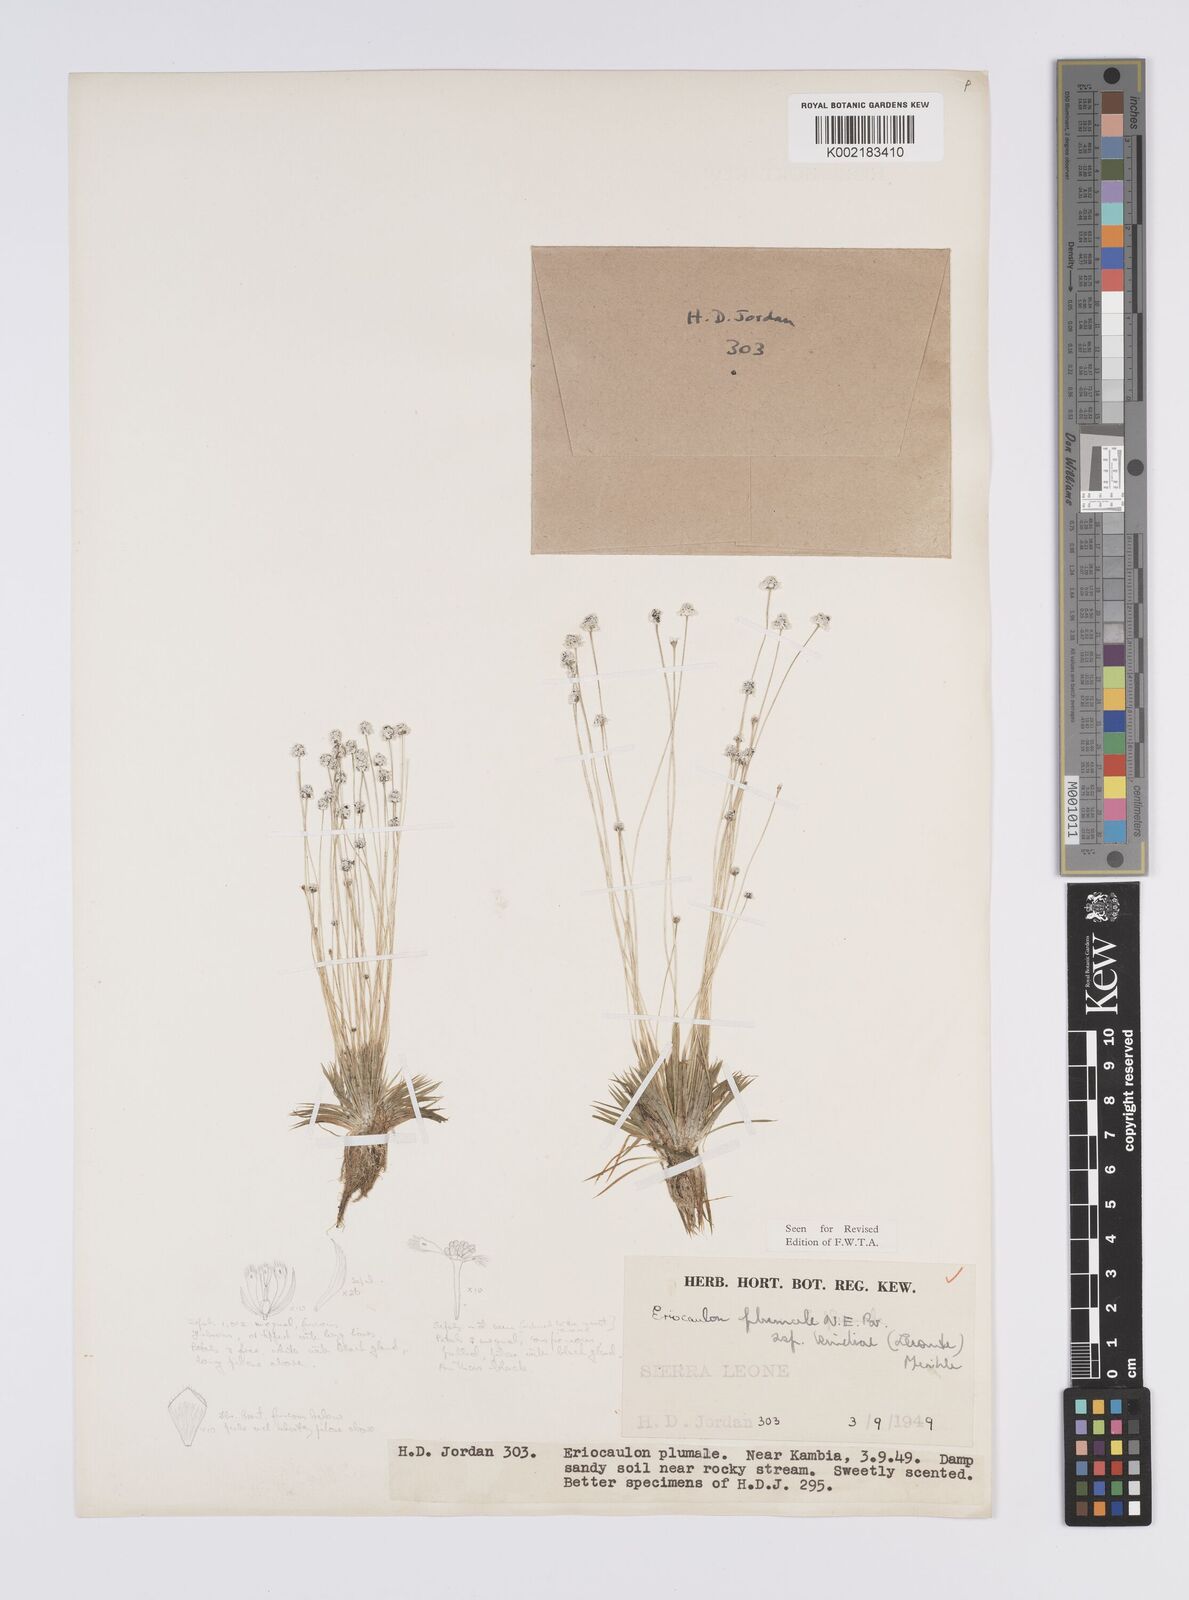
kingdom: Plantae
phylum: Tracheophyta
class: Liliopsida
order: Poales
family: Eriocaulaceae
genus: Eriocaulon
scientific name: Eriocaulon plumale
